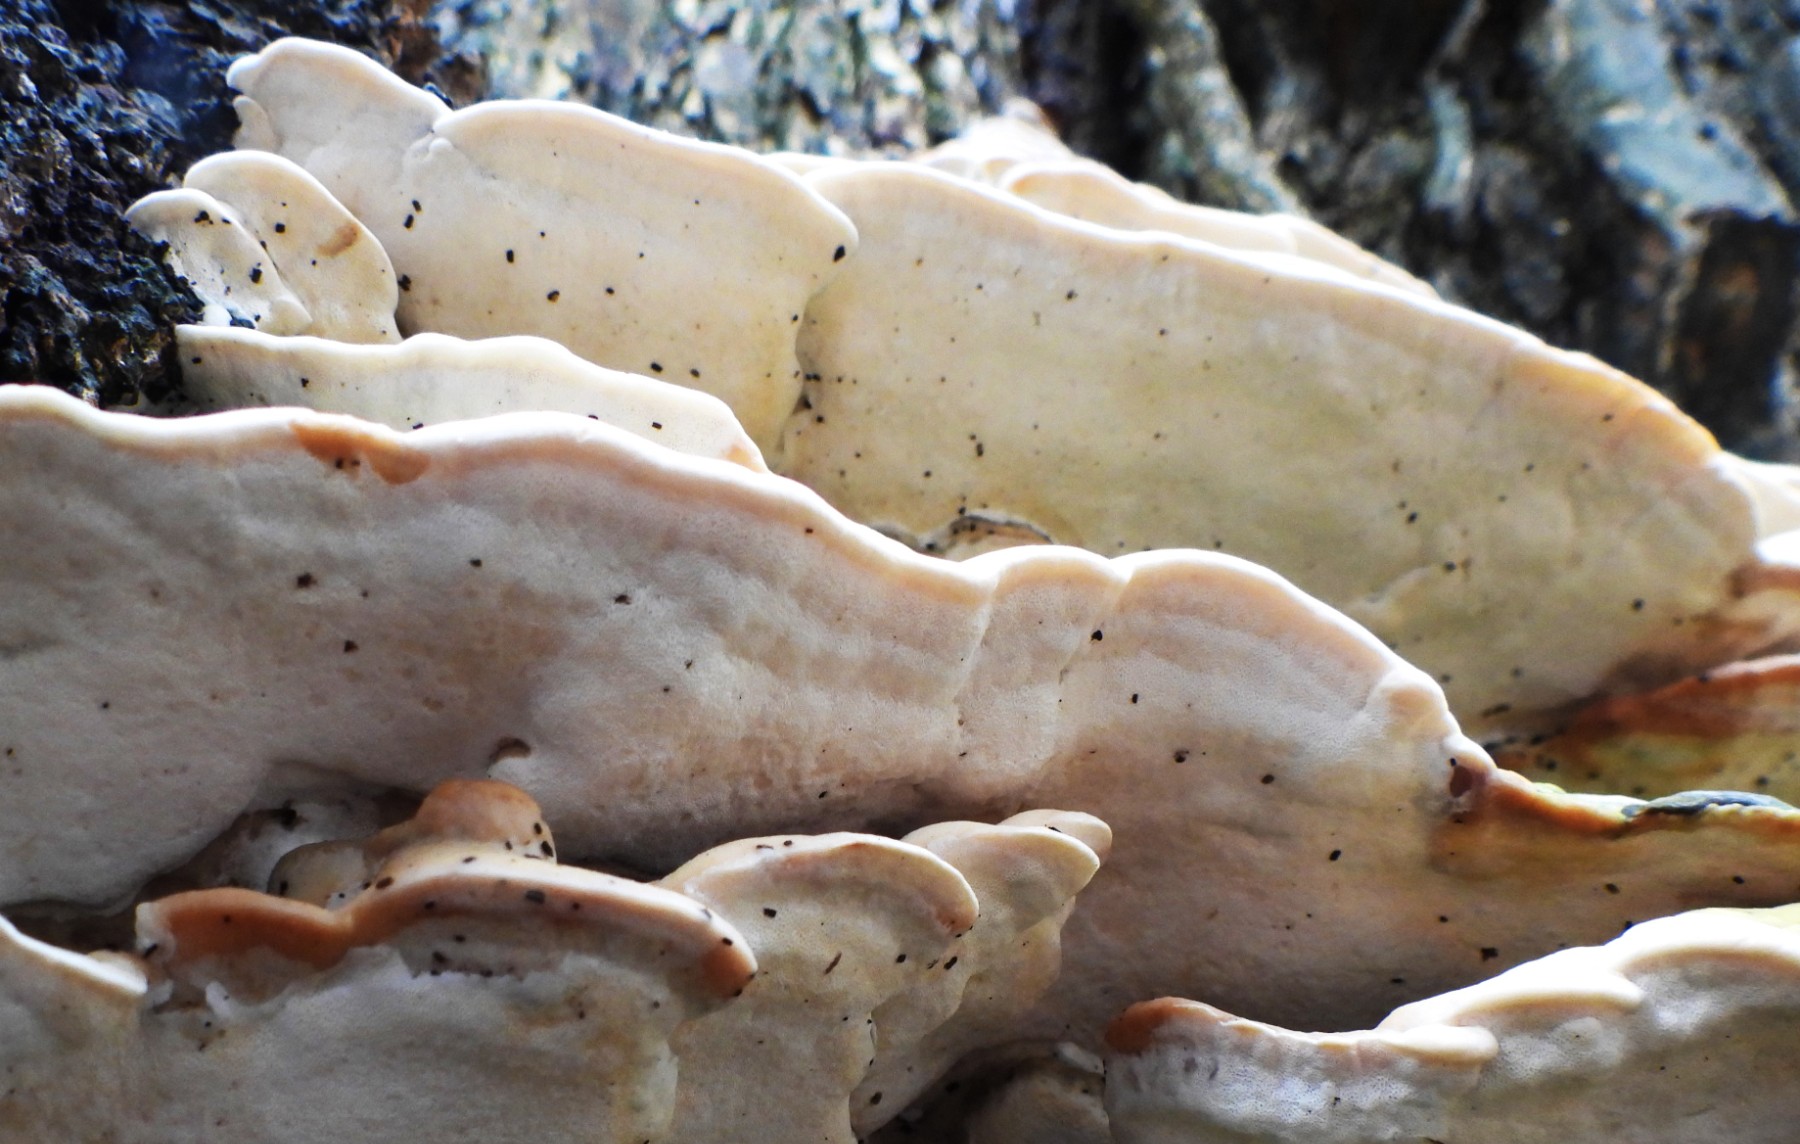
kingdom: Fungi
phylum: Basidiomycota
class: Agaricomycetes
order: Hymenochaetales
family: Oxyporaceae
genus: Oxyporus
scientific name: Oxyporus populinus
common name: sammenvokset trylleporesvamp
